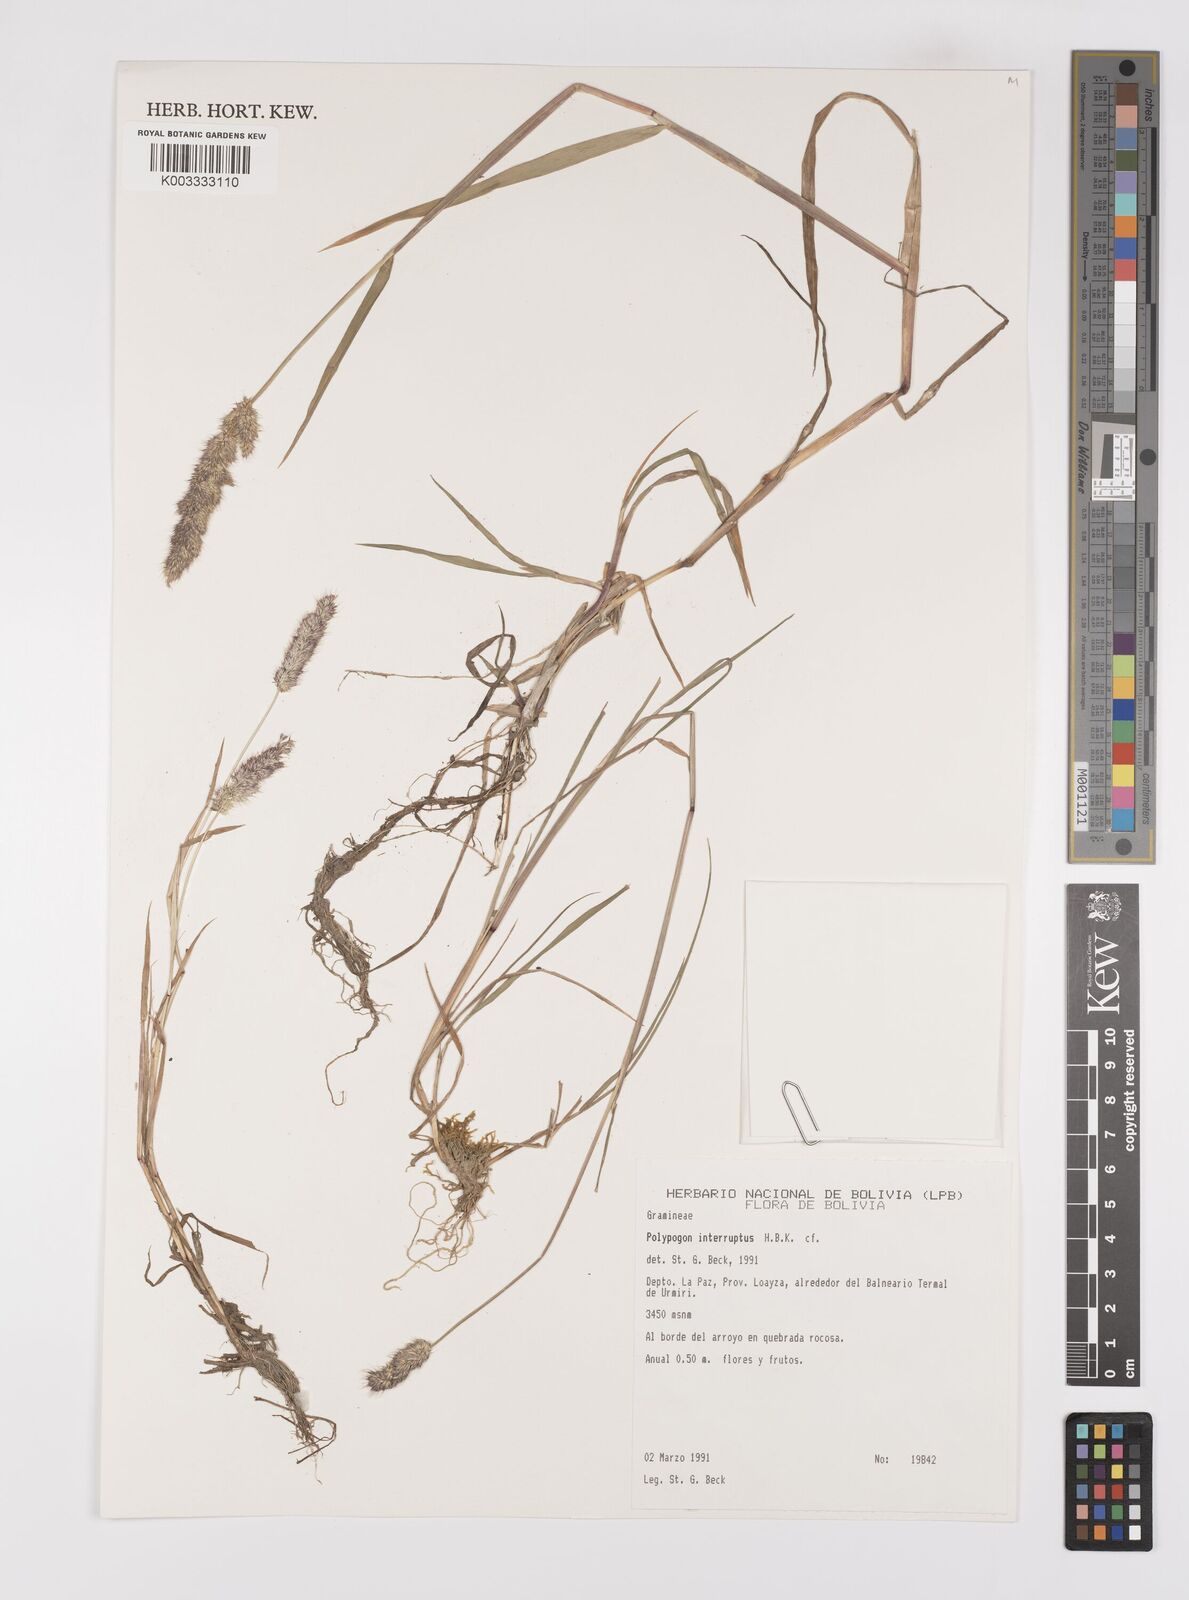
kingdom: Plantae
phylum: Tracheophyta
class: Liliopsida
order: Poales
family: Poaceae
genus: Polypogon
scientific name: Polypogon interruptus
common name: Ditch polypogon
